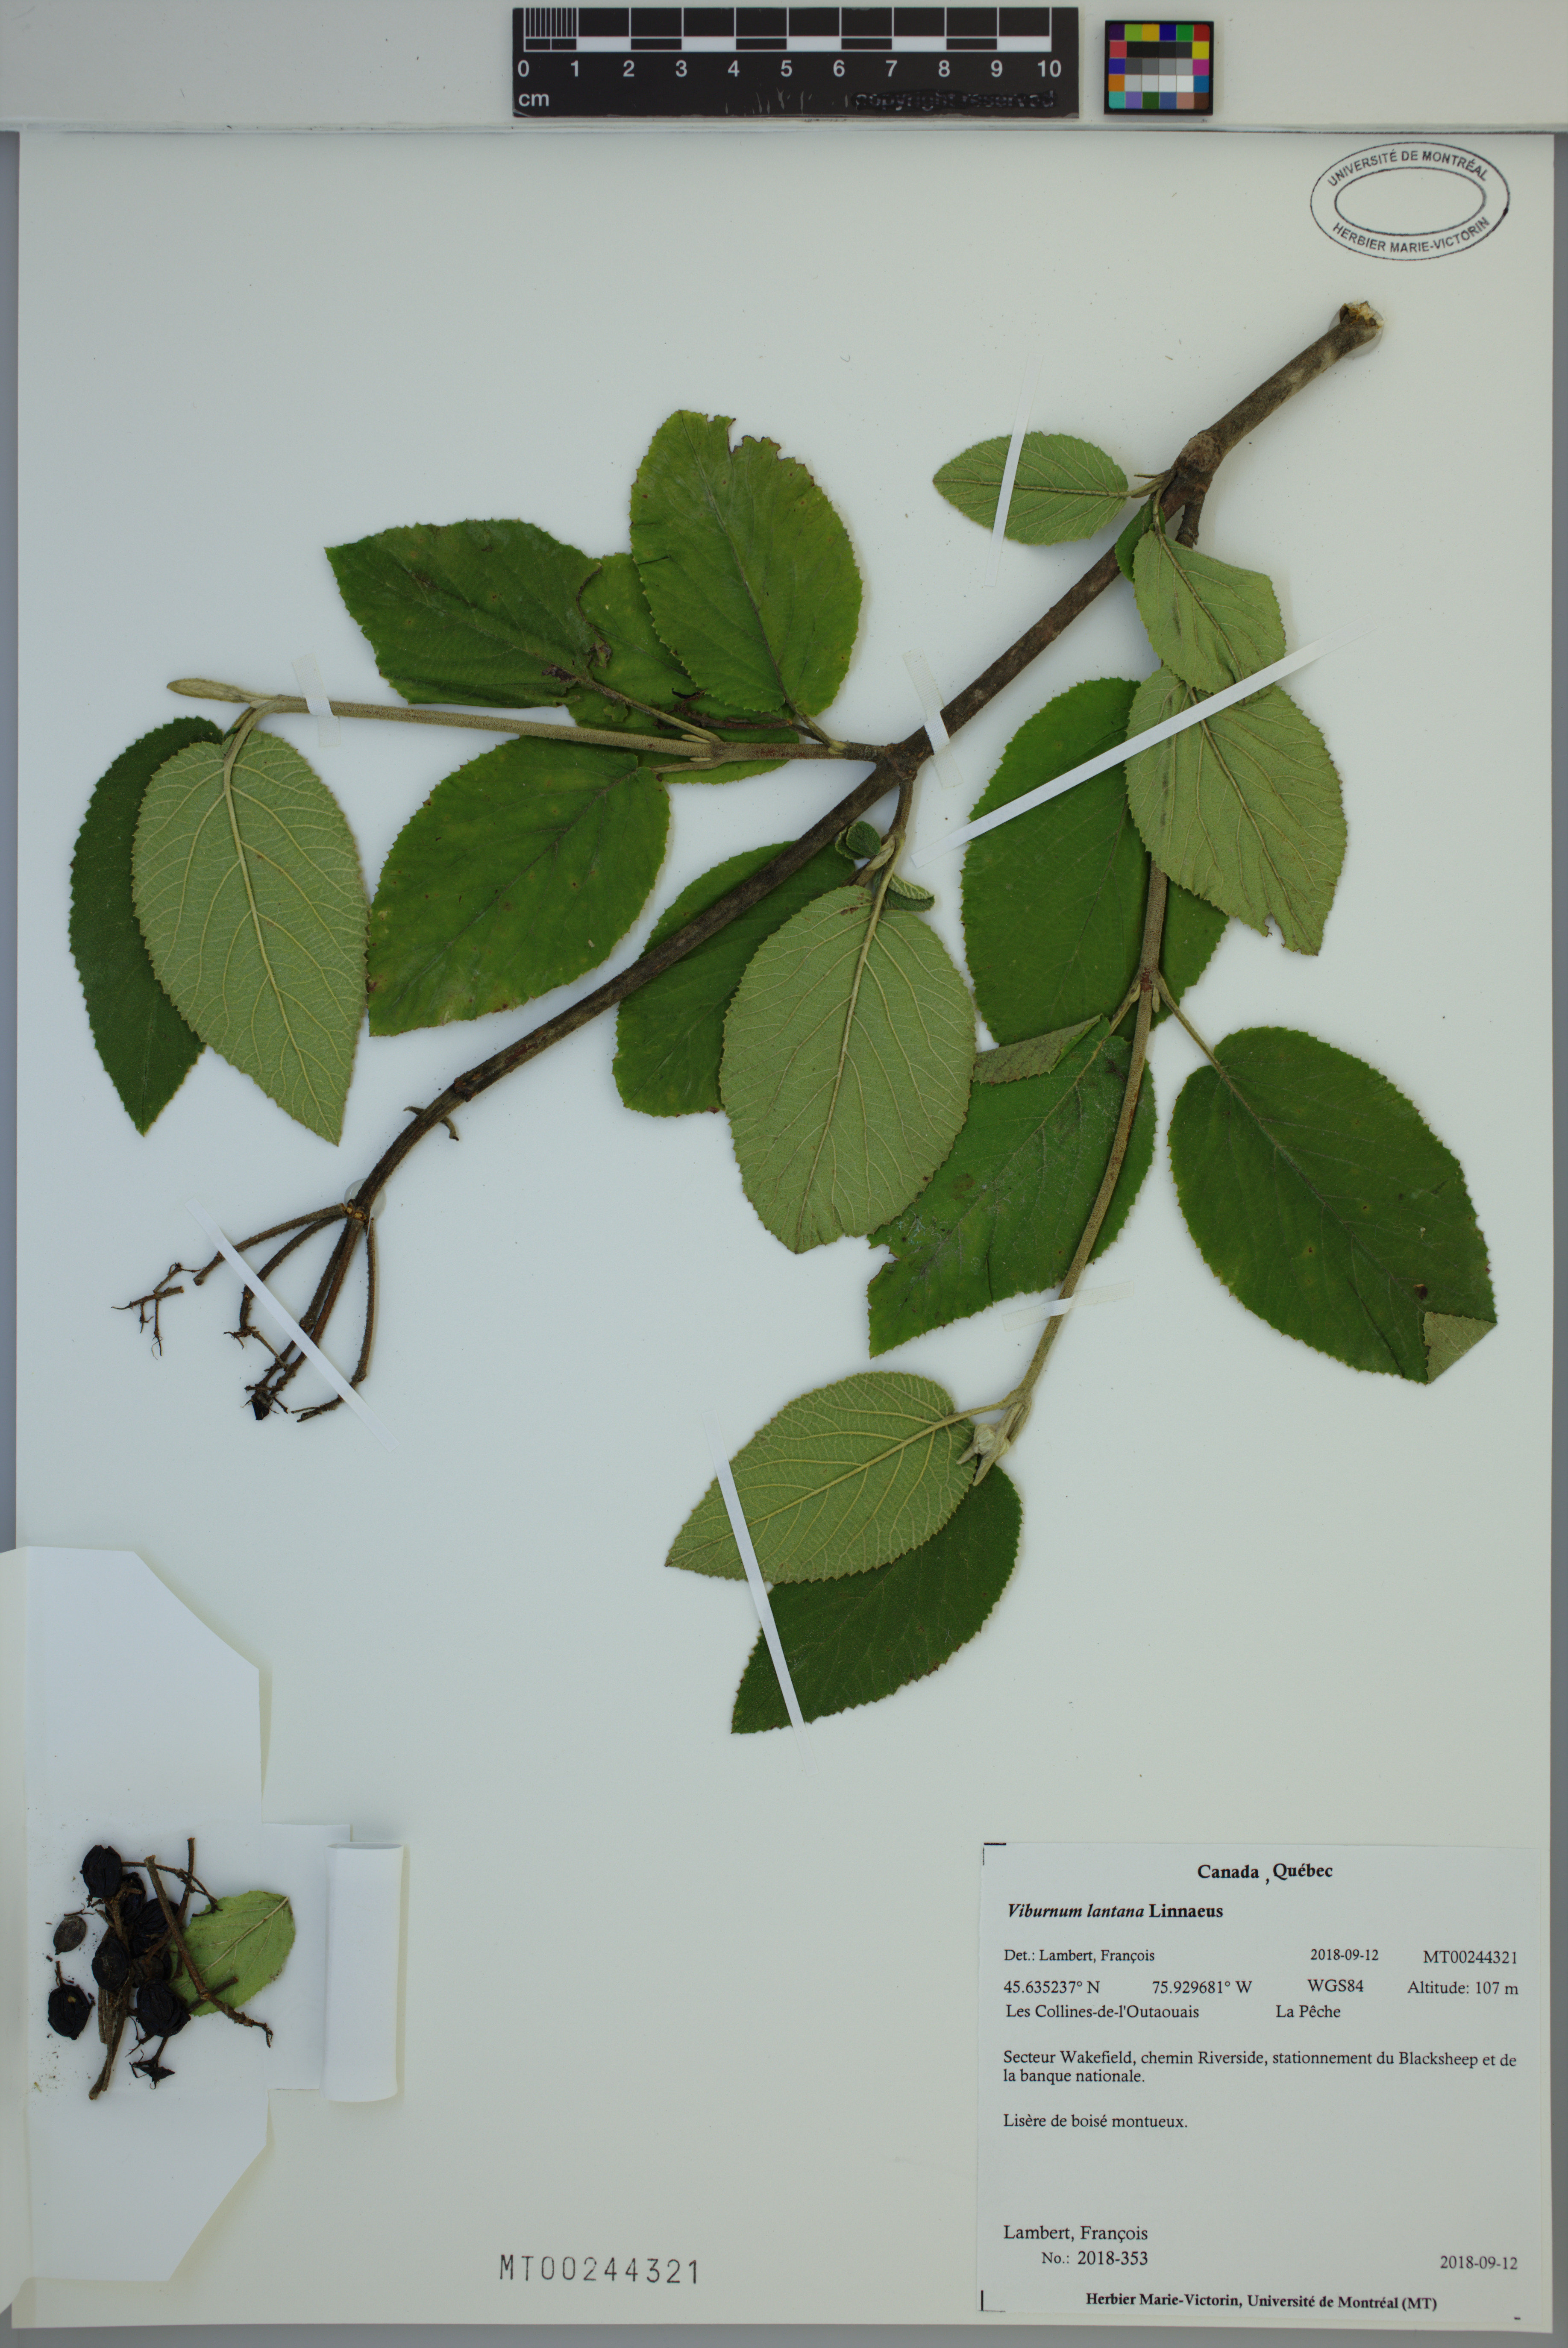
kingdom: Plantae
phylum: Tracheophyta
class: Magnoliopsida
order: Dipsacales
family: Viburnaceae
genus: Viburnum
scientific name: Viburnum lantana
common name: Wayfaring tree
